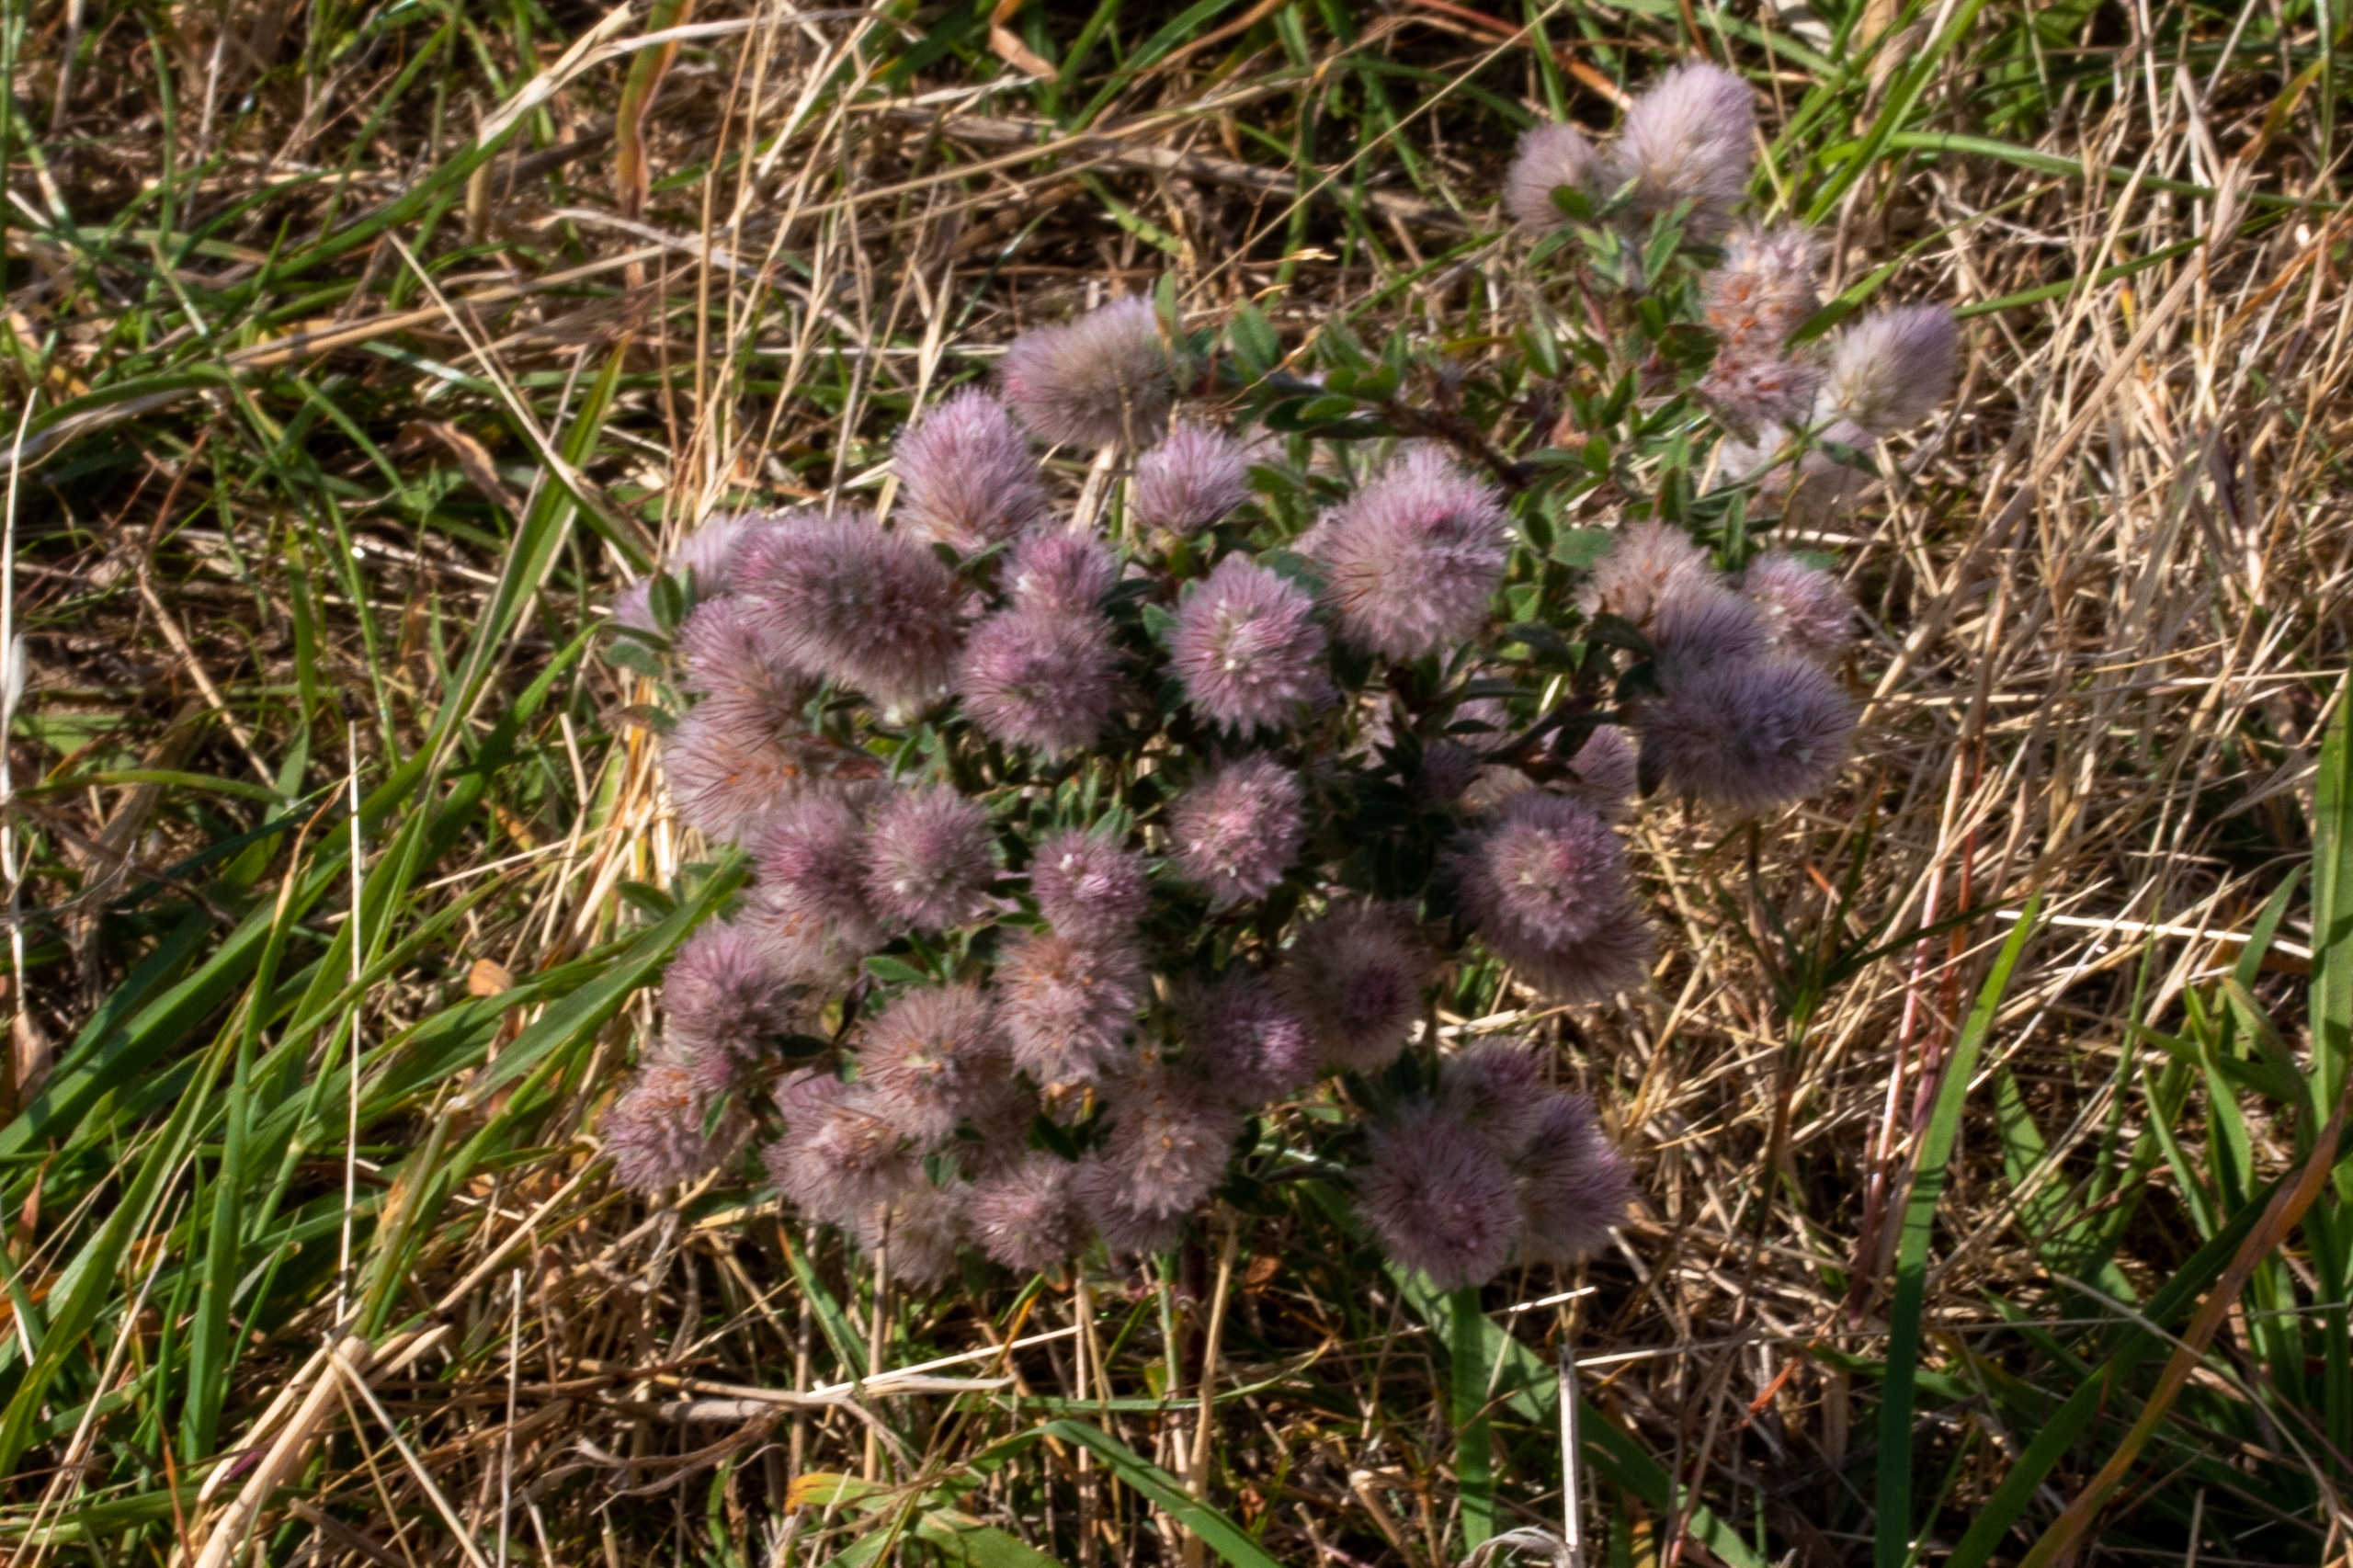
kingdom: Plantae
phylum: Tracheophyta
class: Magnoliopsida
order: Fabales
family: Fabaceae
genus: Trifolium
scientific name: Trifolium arvense
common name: Hare-kløver
